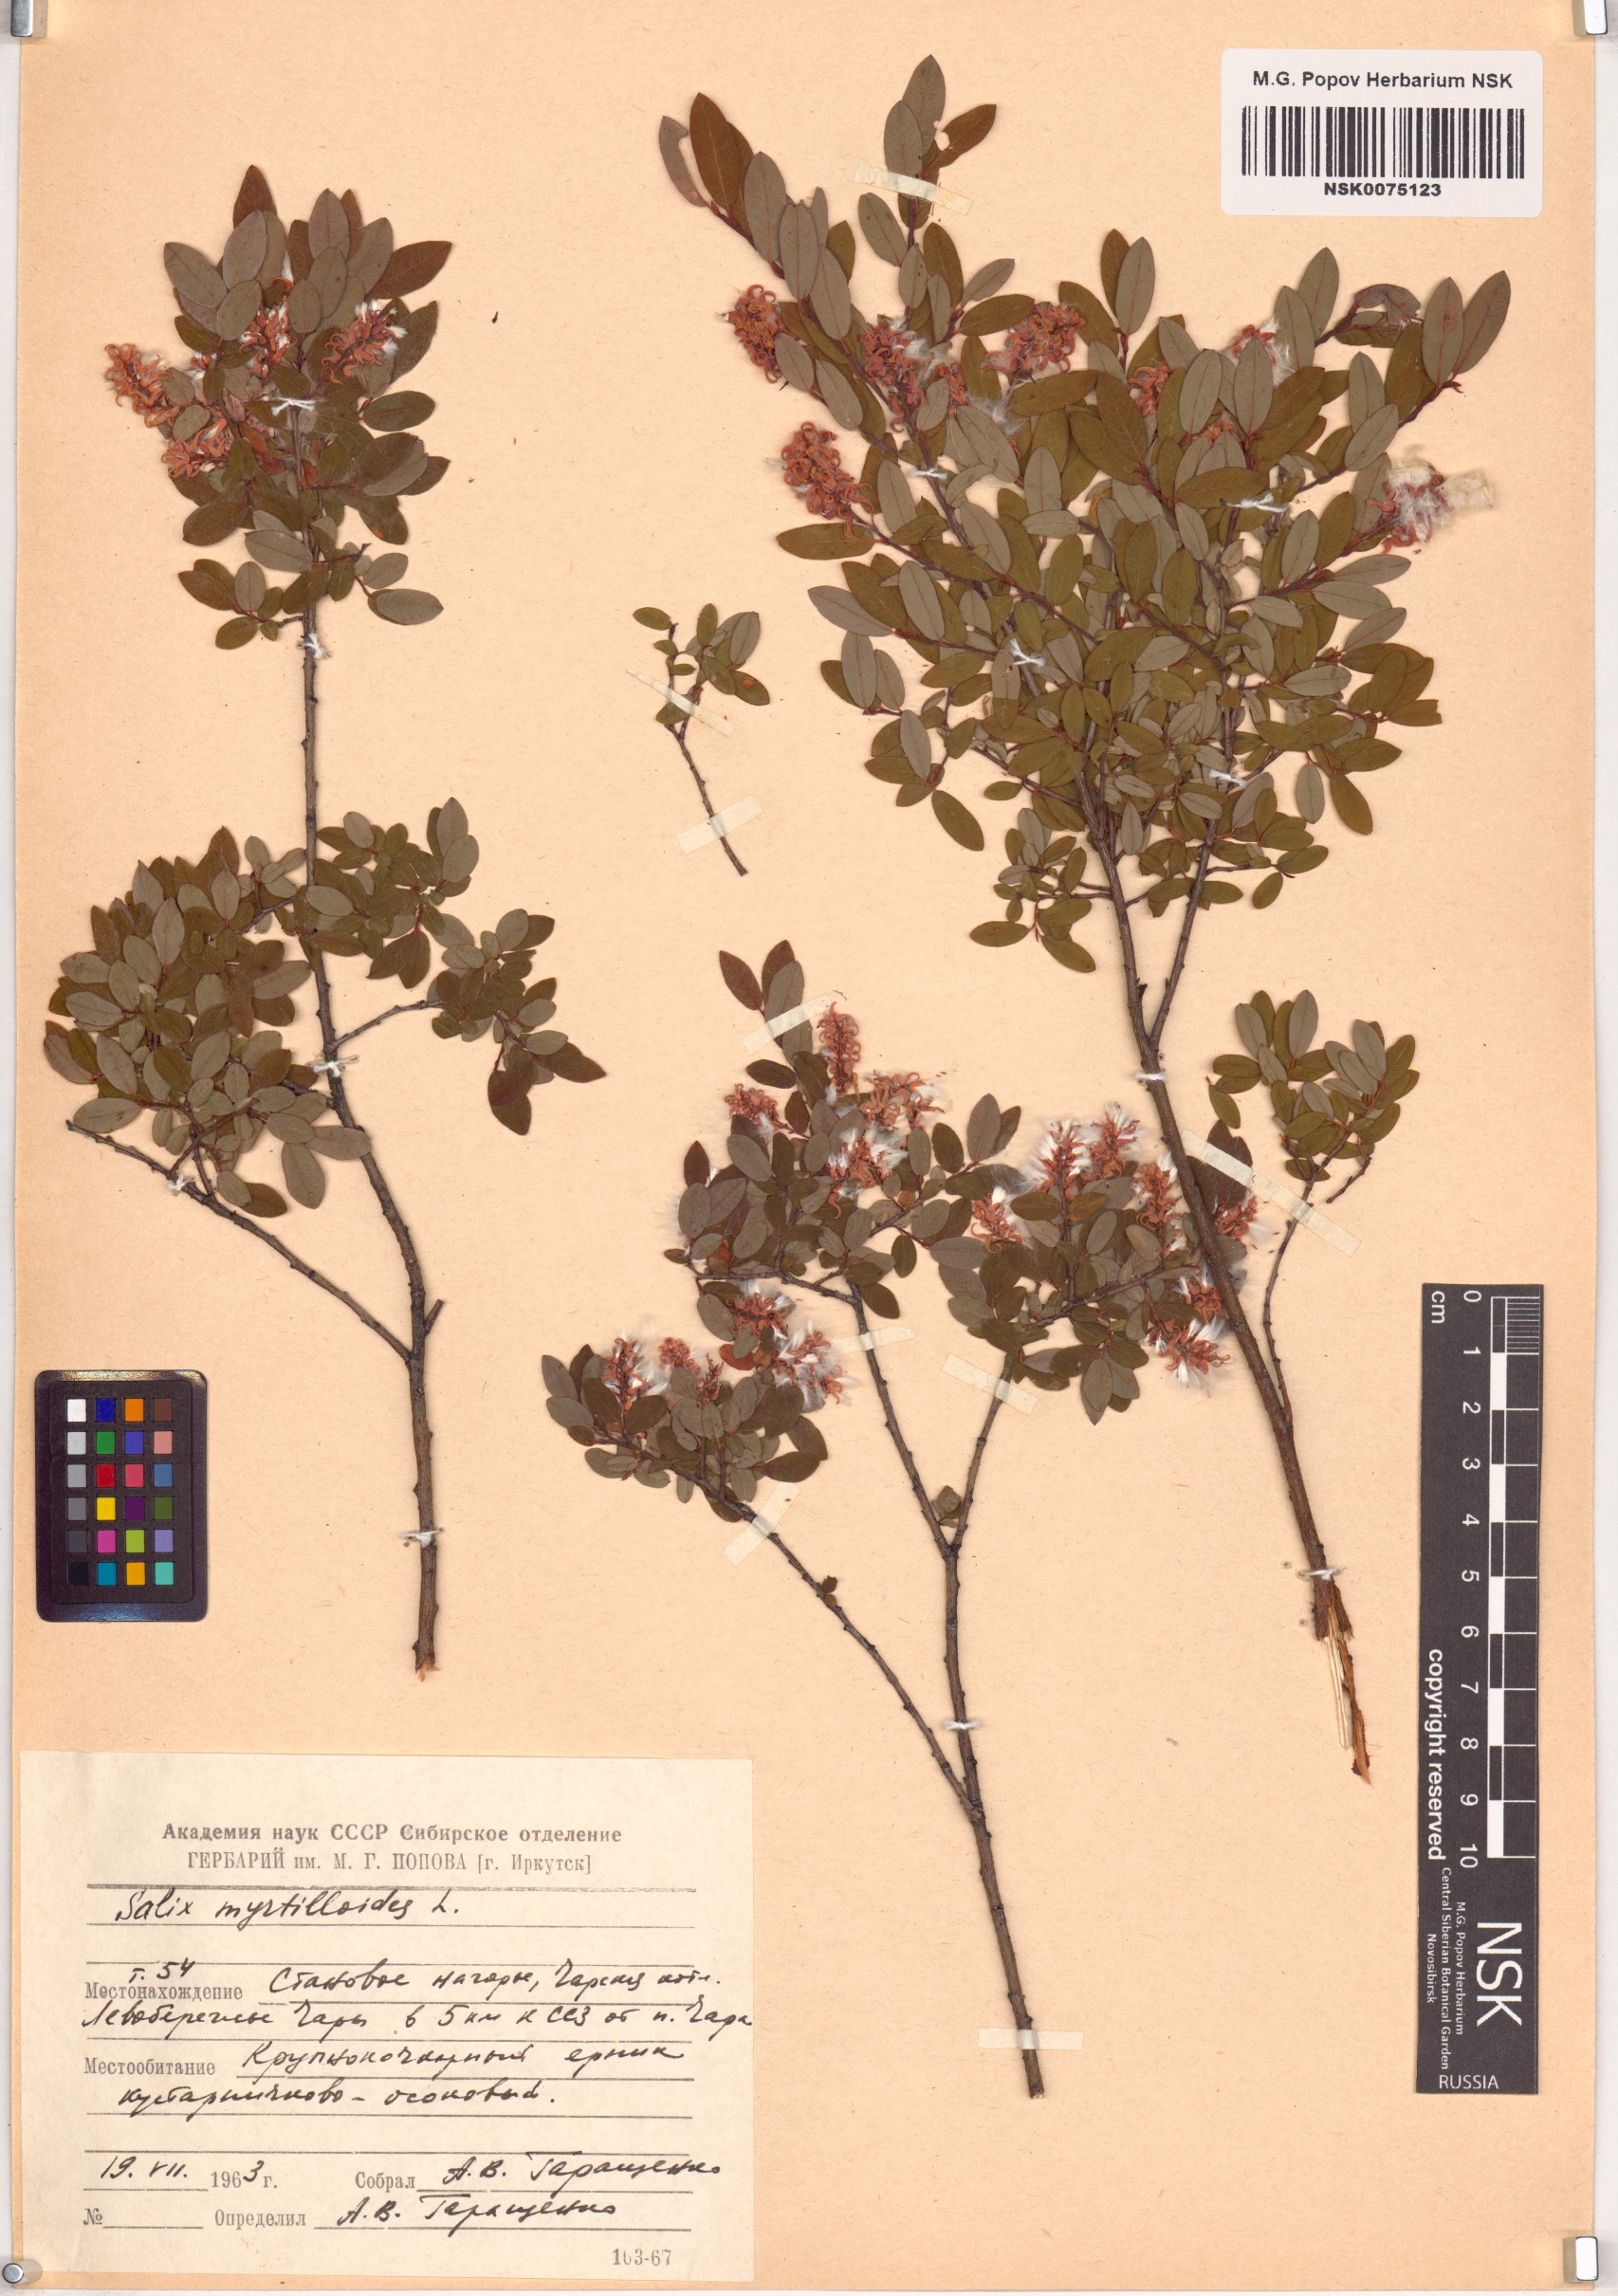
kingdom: Plantae
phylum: Tracheophyta
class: Magnoliopsida
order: Malpighiales
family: Salicaceae
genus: Salix
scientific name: Salix myrtilloides
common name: Myrtle-leaved willow
